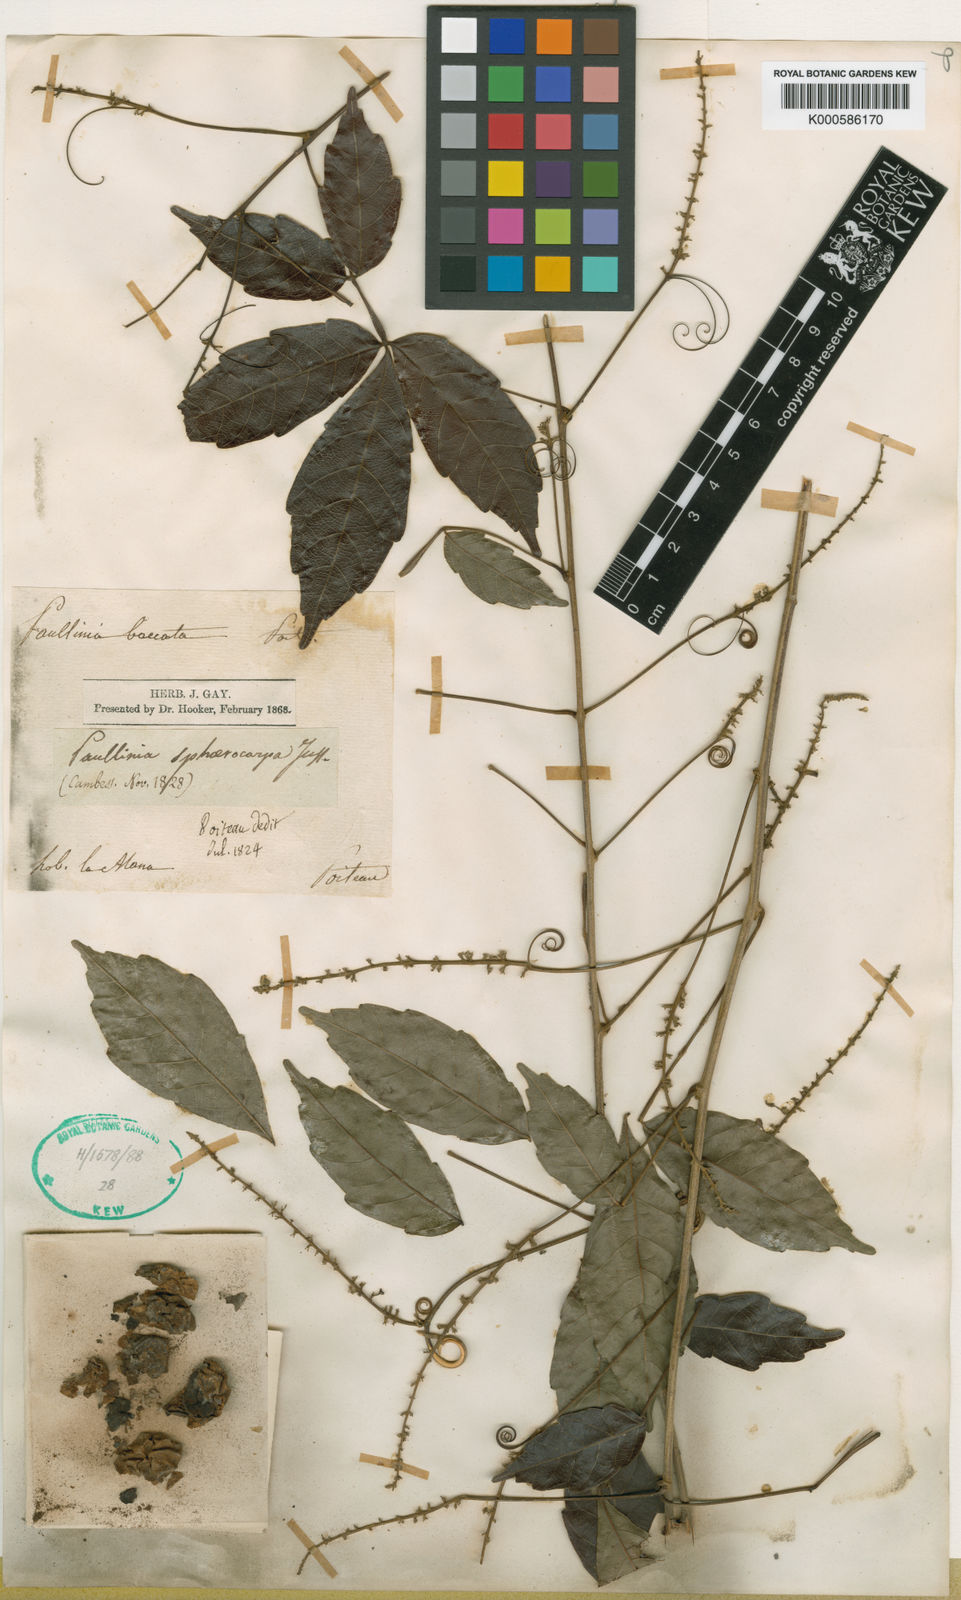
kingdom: Plantae
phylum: Tracheophyta
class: Magnoliopsida
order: Sapindales
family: Sapindaceae
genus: Paullinia
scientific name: Paullinia sphaerocarpa
